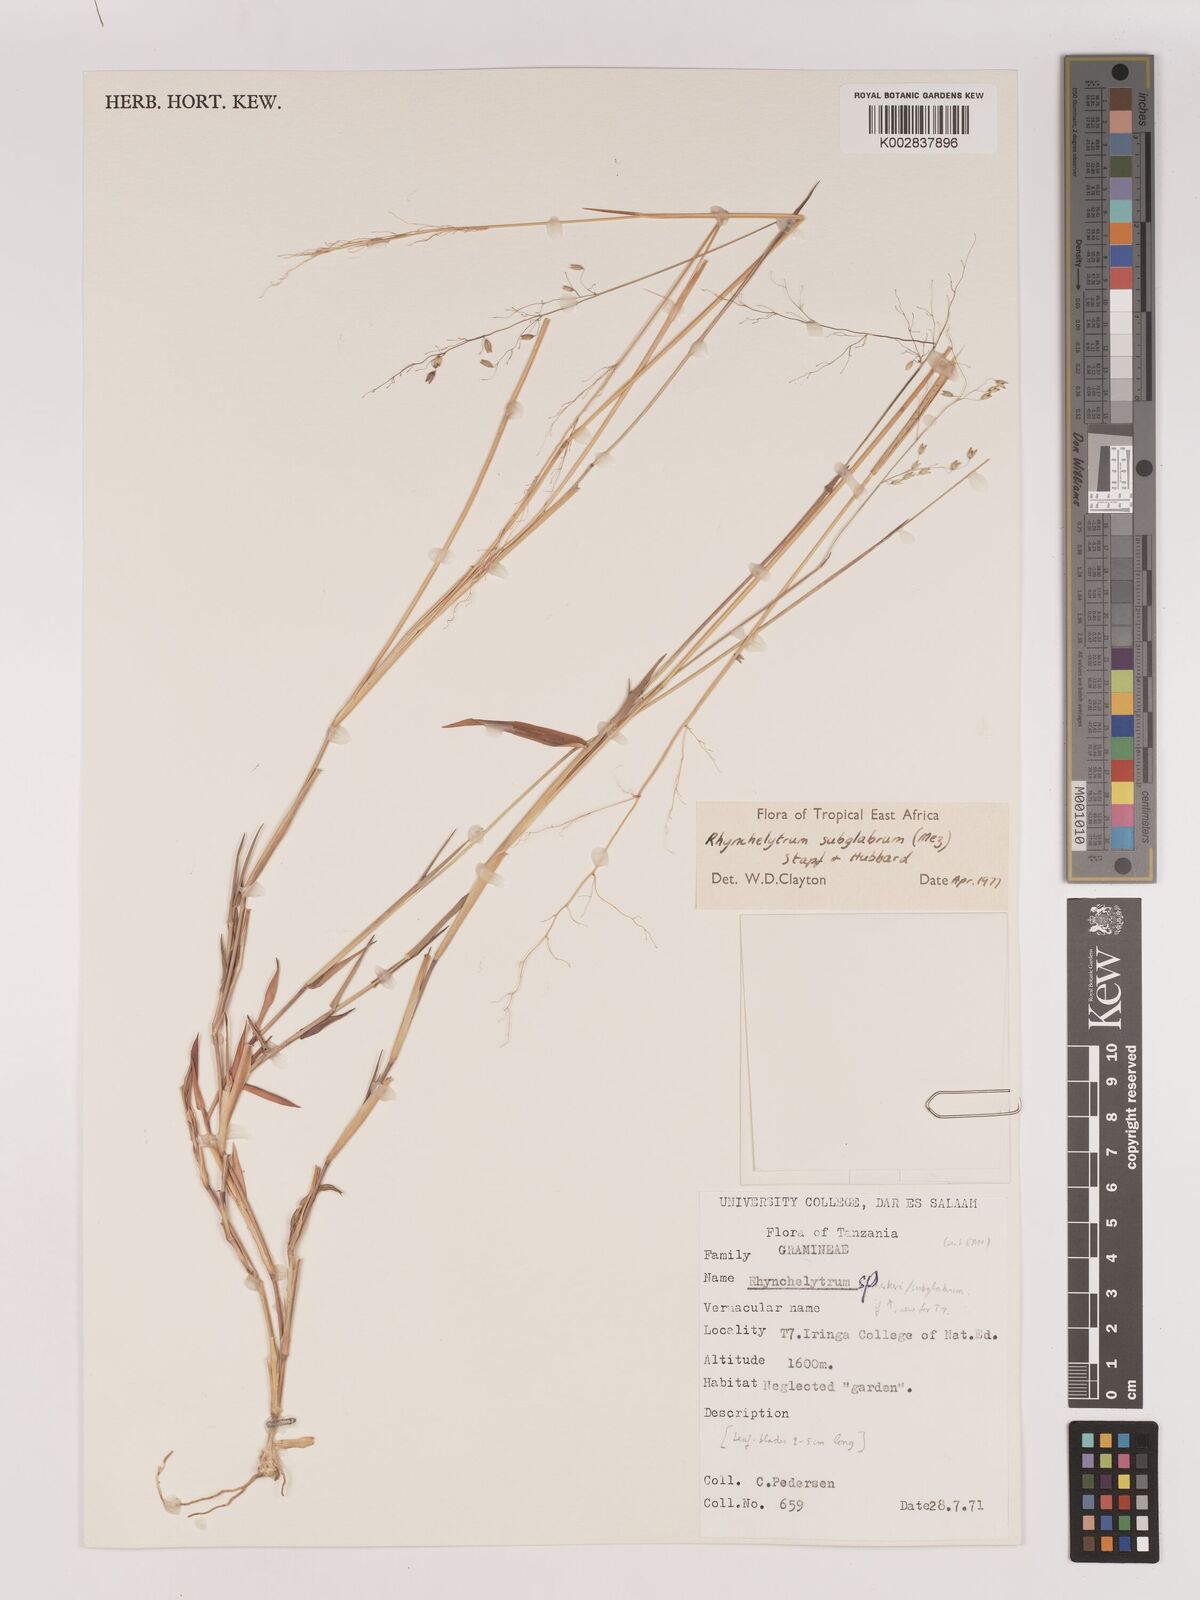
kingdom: Plantae
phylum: Tracheophyta
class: Liliopsida
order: Poales
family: Poaceae
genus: Melinis
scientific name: Melinis subglabra
